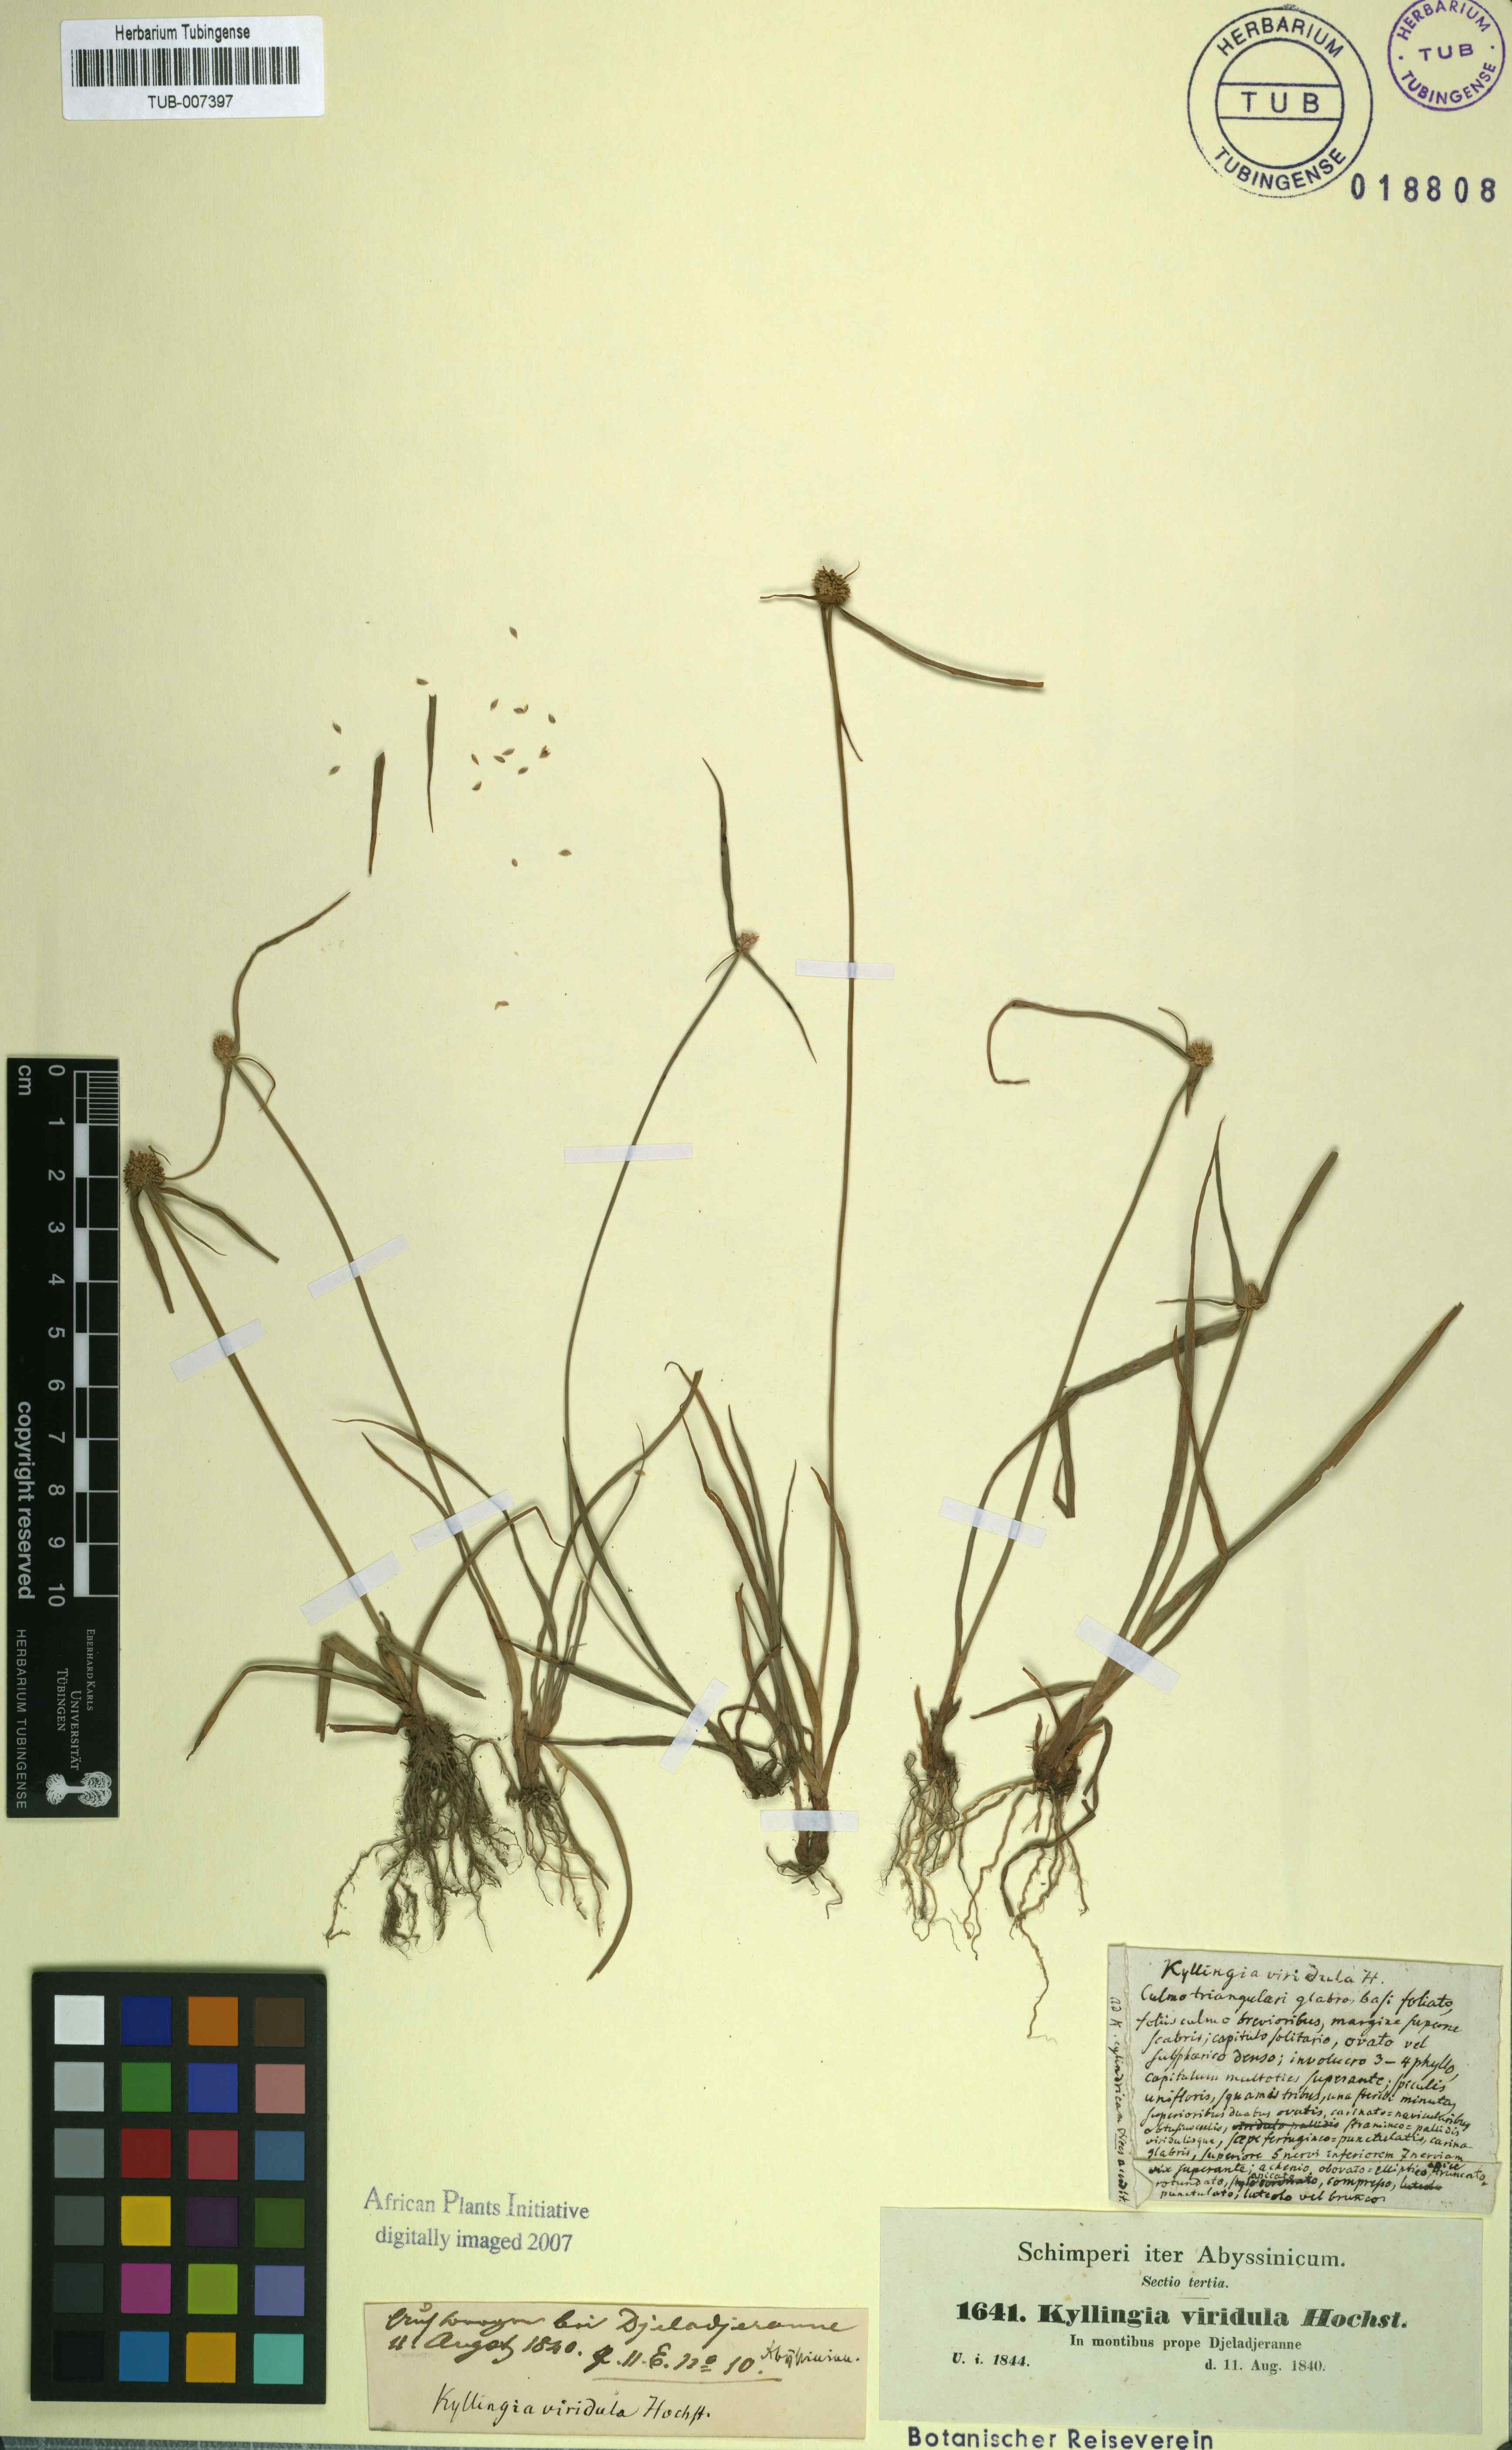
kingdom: Plantae
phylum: Tracheophyta
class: Liliopsida
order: Poales
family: Cyperaceae
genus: Cyperus
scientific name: Cyperus sesquiflorus
